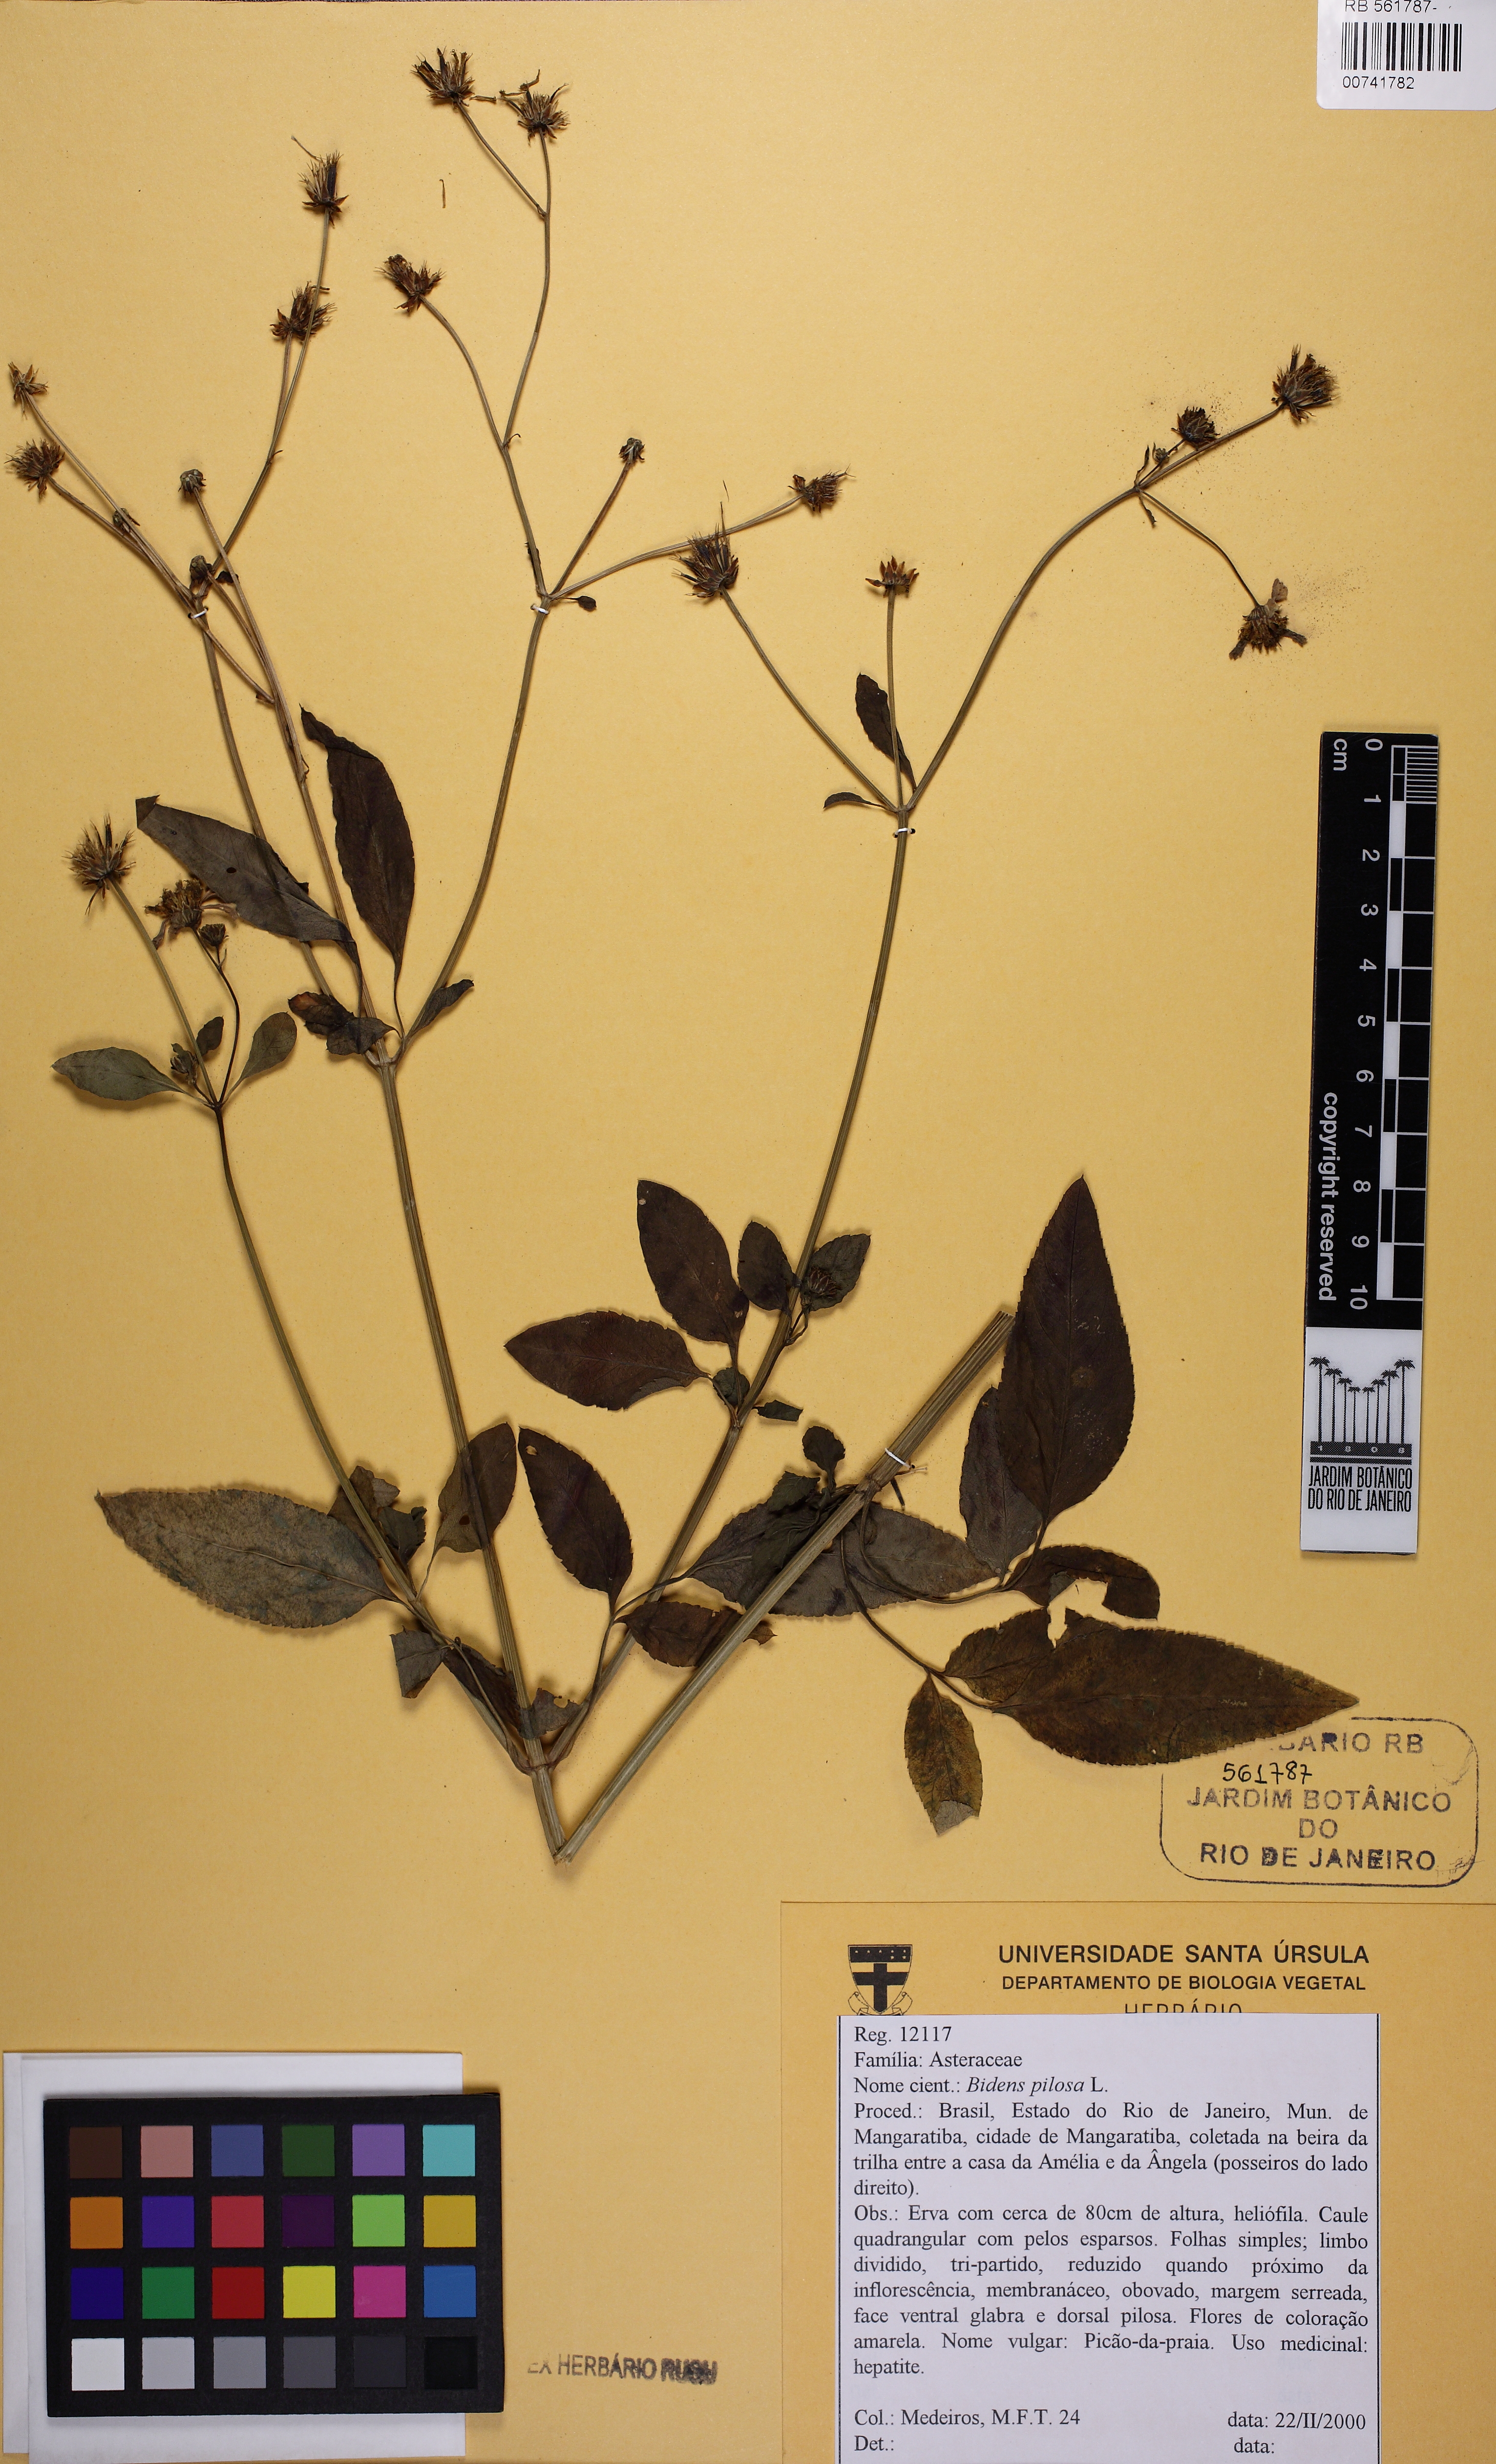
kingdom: Plantae
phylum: Tracheophyta
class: Magnoliopsida
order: Asterales
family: Asteraceae
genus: Bidens
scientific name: Bidens pilosa
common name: Black-jack
